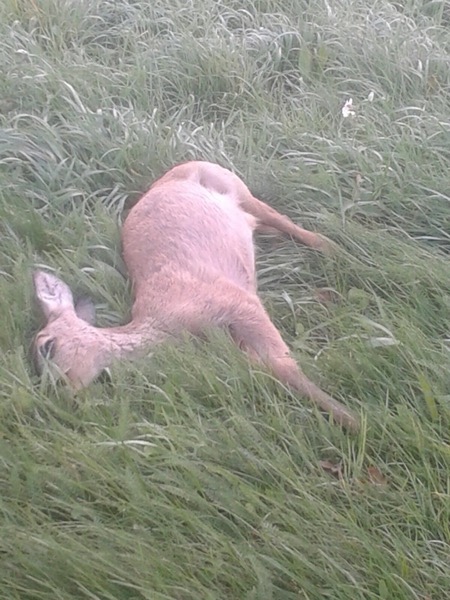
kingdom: Animalia
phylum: Chordata
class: Mammalia
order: Artiodactyla
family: Cervidae
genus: Capreolus
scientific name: Capreolus capreolus
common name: Western roe deer
